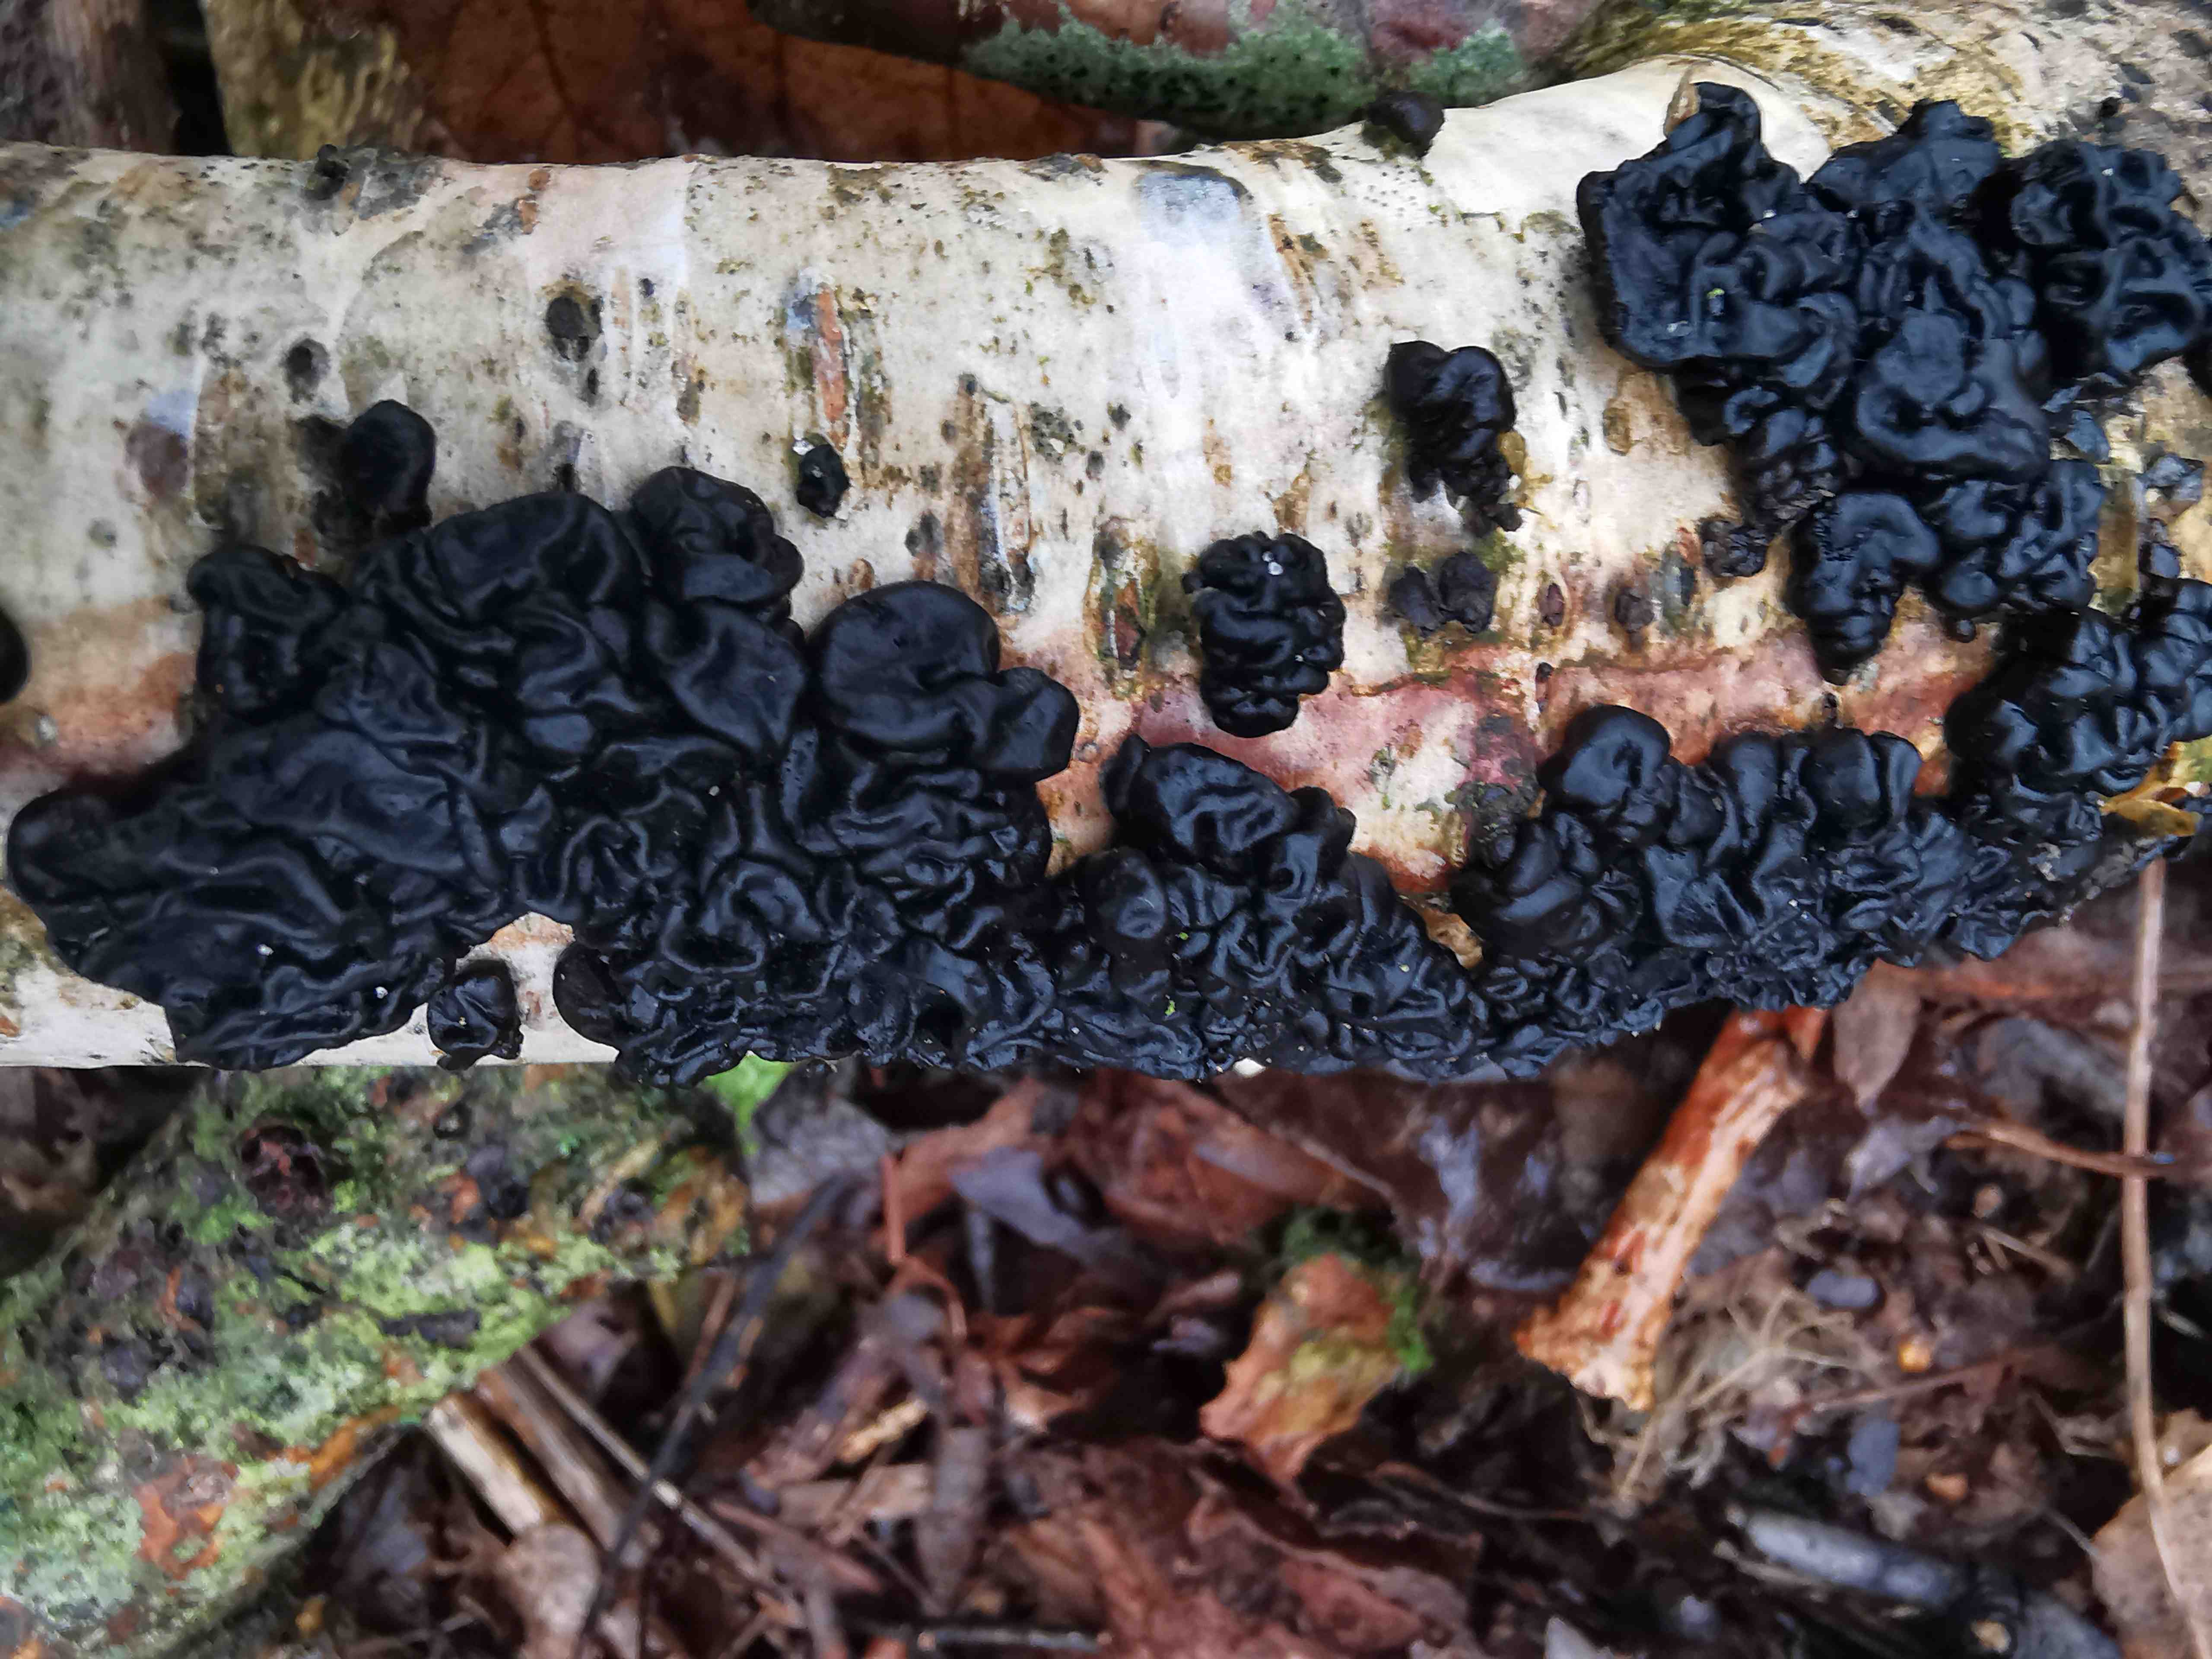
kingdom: Fungi
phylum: Basidiomycota
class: Agaricomycetes
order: Auriculariales
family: Auriculariaceae
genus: Exidia
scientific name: Exidia nigricans
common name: almindelig bævretop
